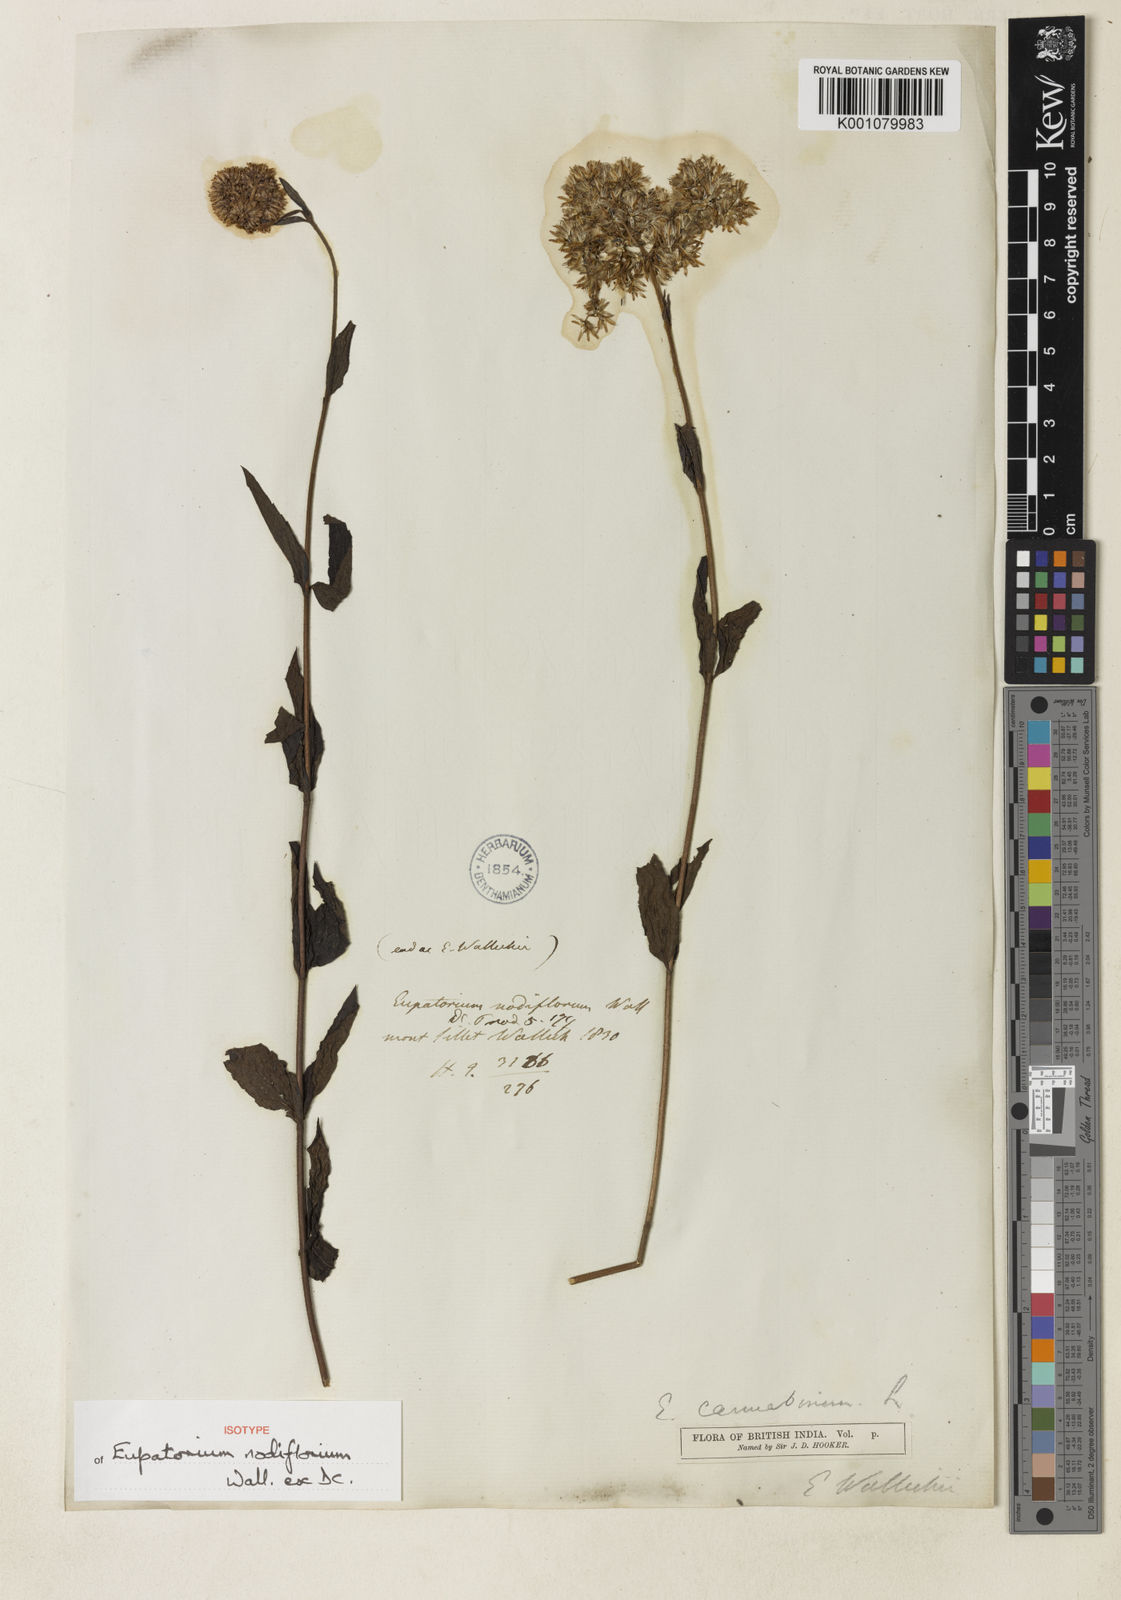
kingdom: Plantae
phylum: Tracheophyta
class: Magnoliopsida
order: Asterales
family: Asteraceae
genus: Eupatorium
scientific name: Eupatorium cannabinum
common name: Hemp-agrimony
